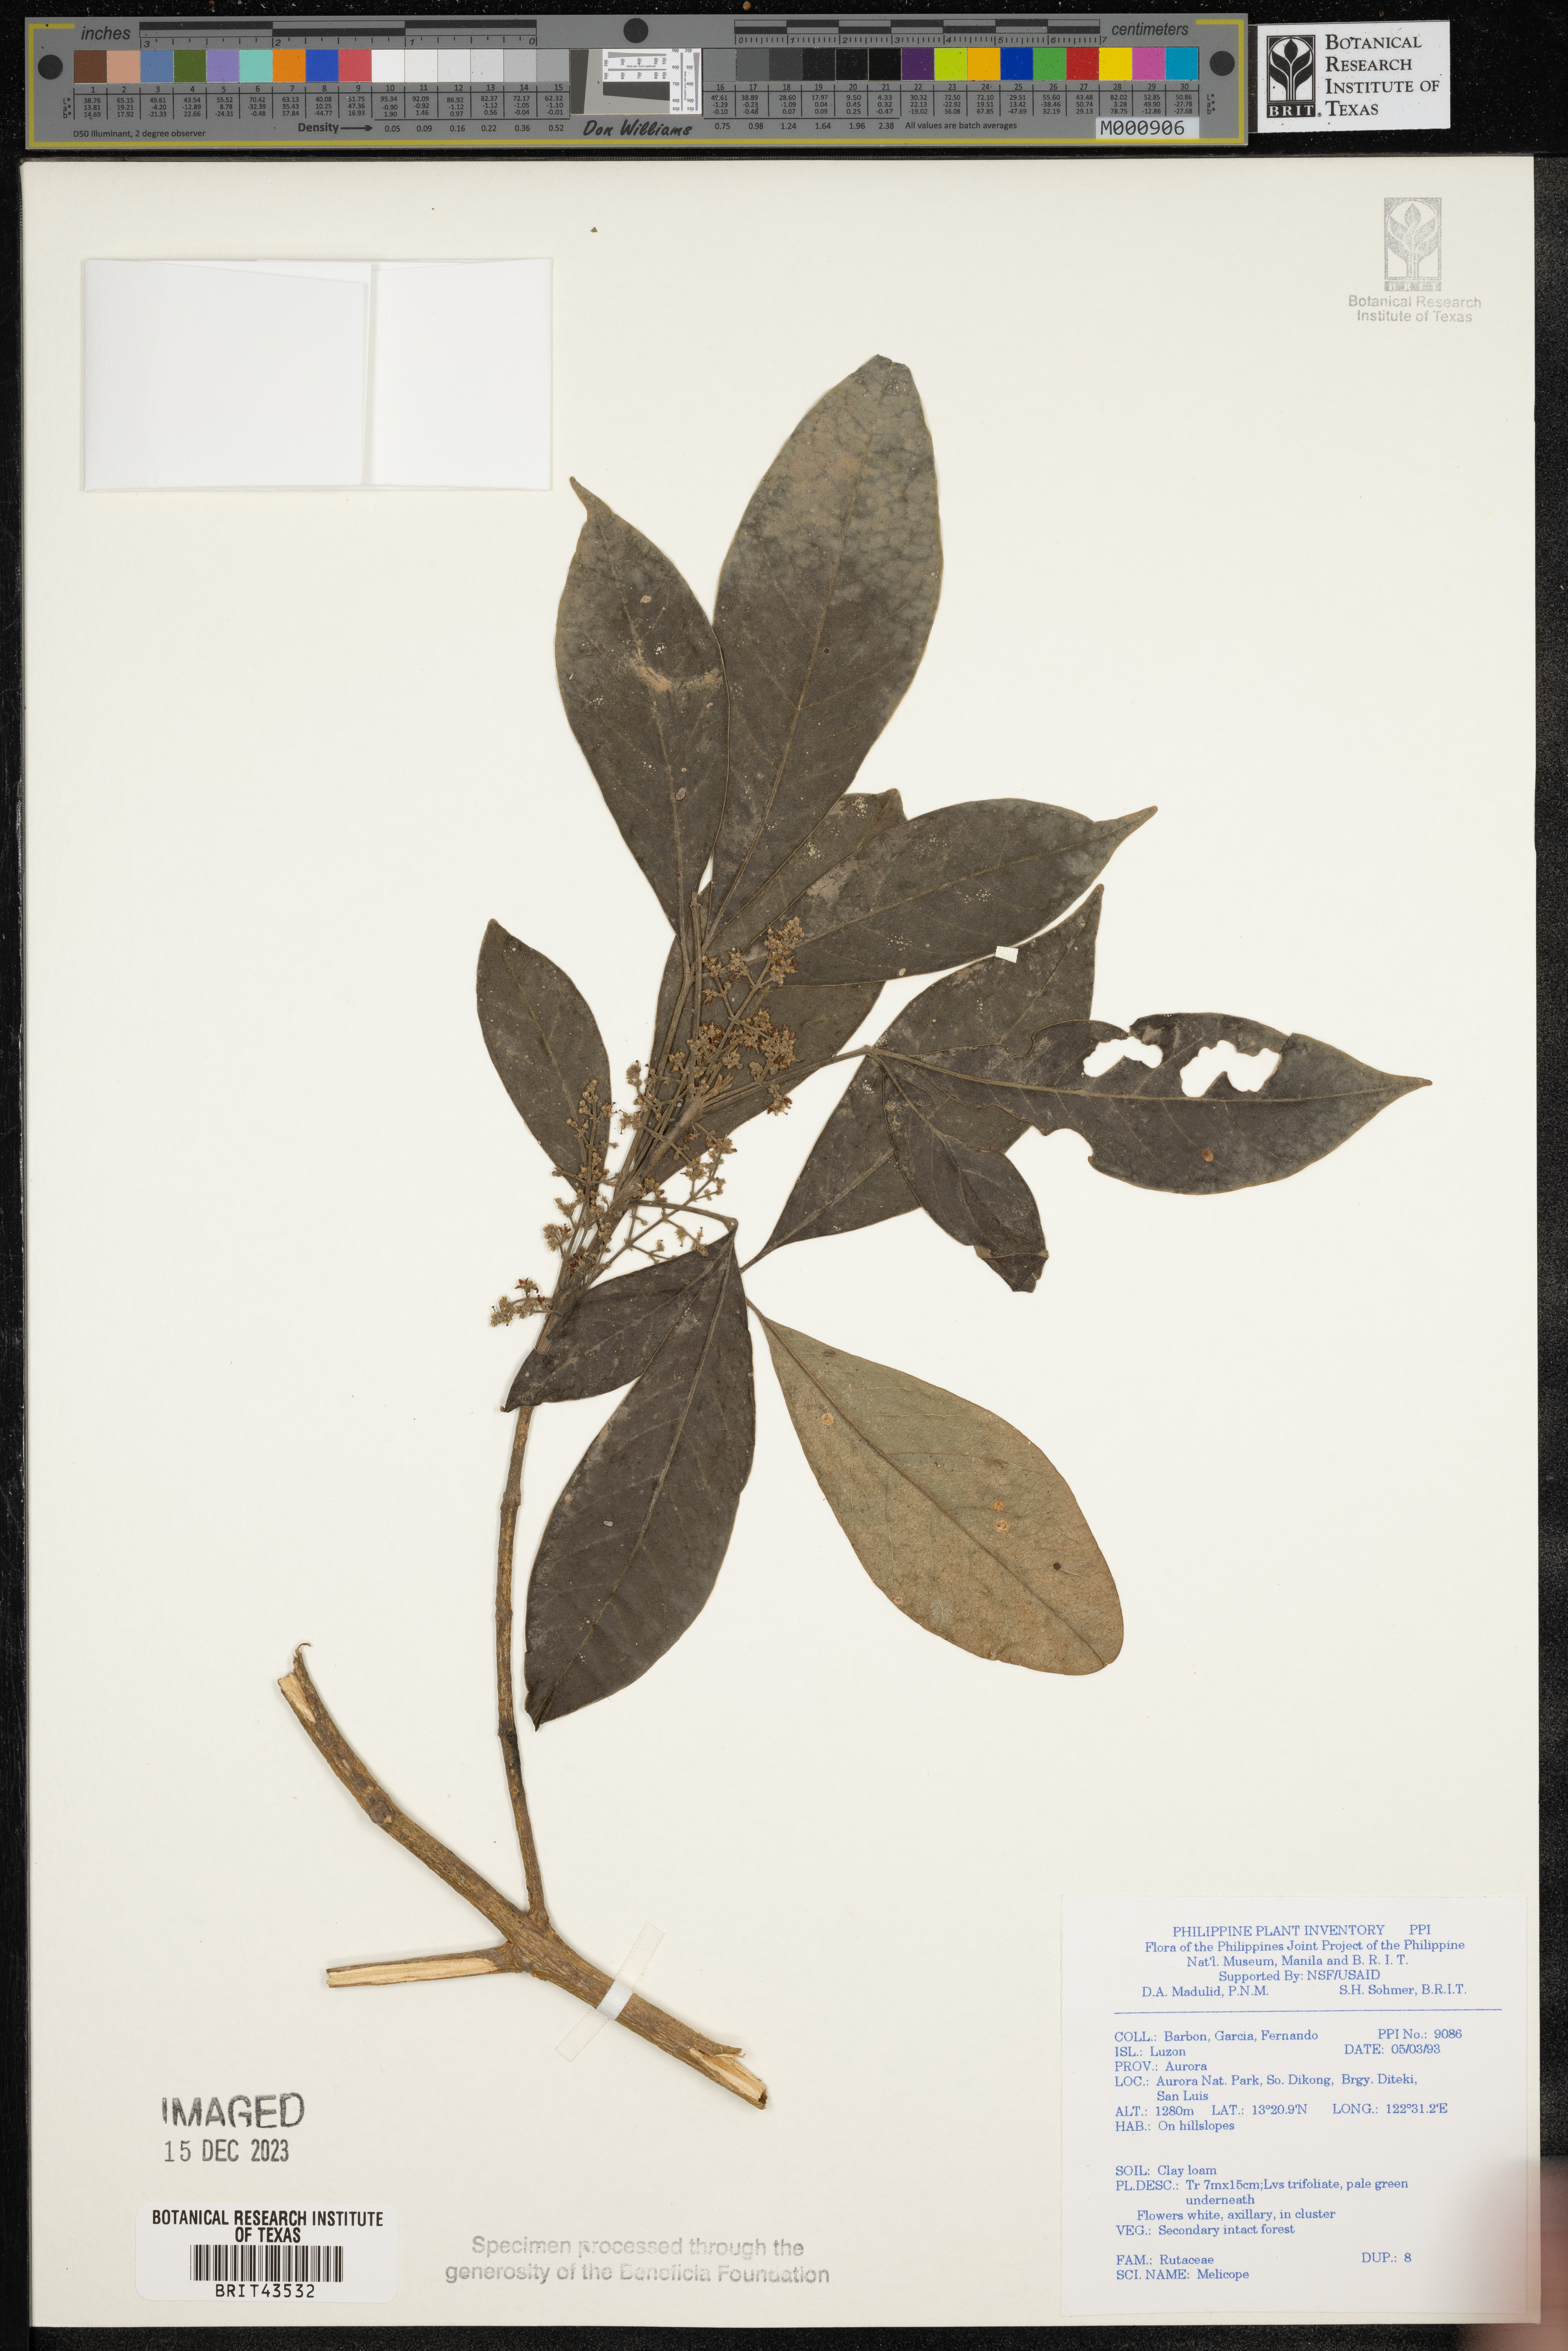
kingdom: Plantae
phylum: Tracheophyta
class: Magnoliopsida
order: Sapindales
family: Rutaceae
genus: Melicope
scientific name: Melicope
